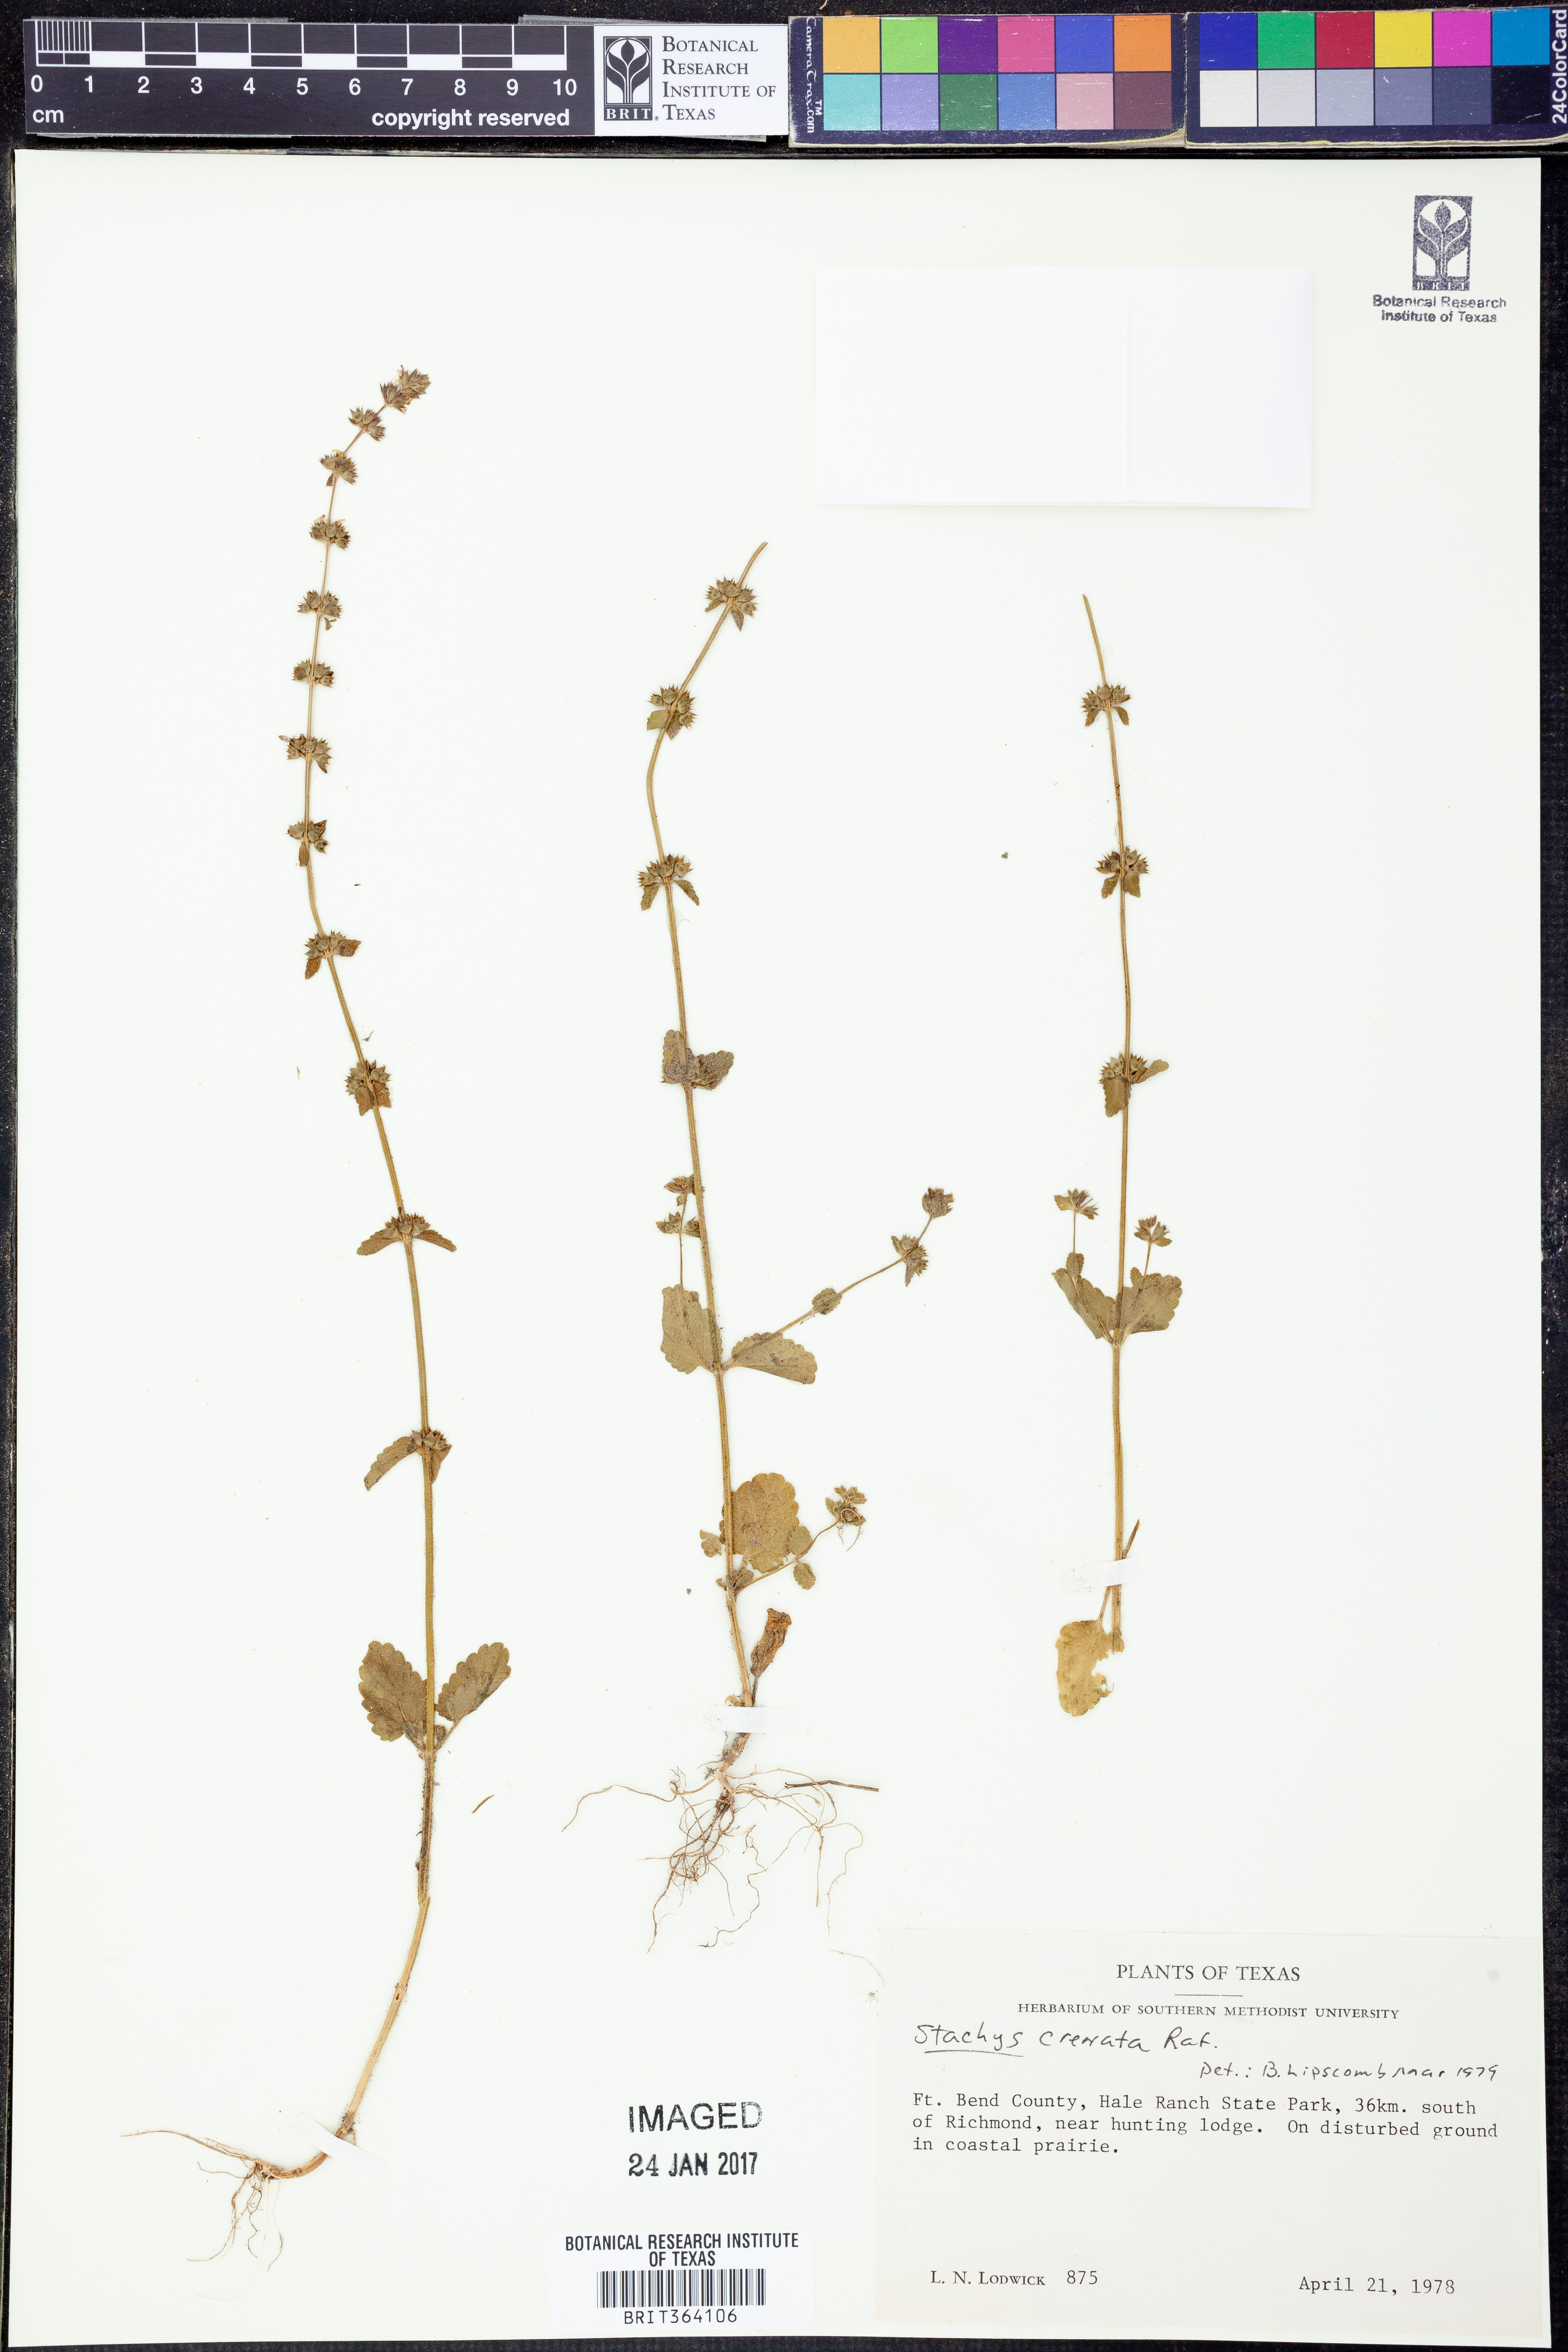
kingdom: Plantae
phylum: Tracheophyta
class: Magnoliopsida
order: Lamiales
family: Lamiaceae
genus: Stachys
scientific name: Stachys agraria
